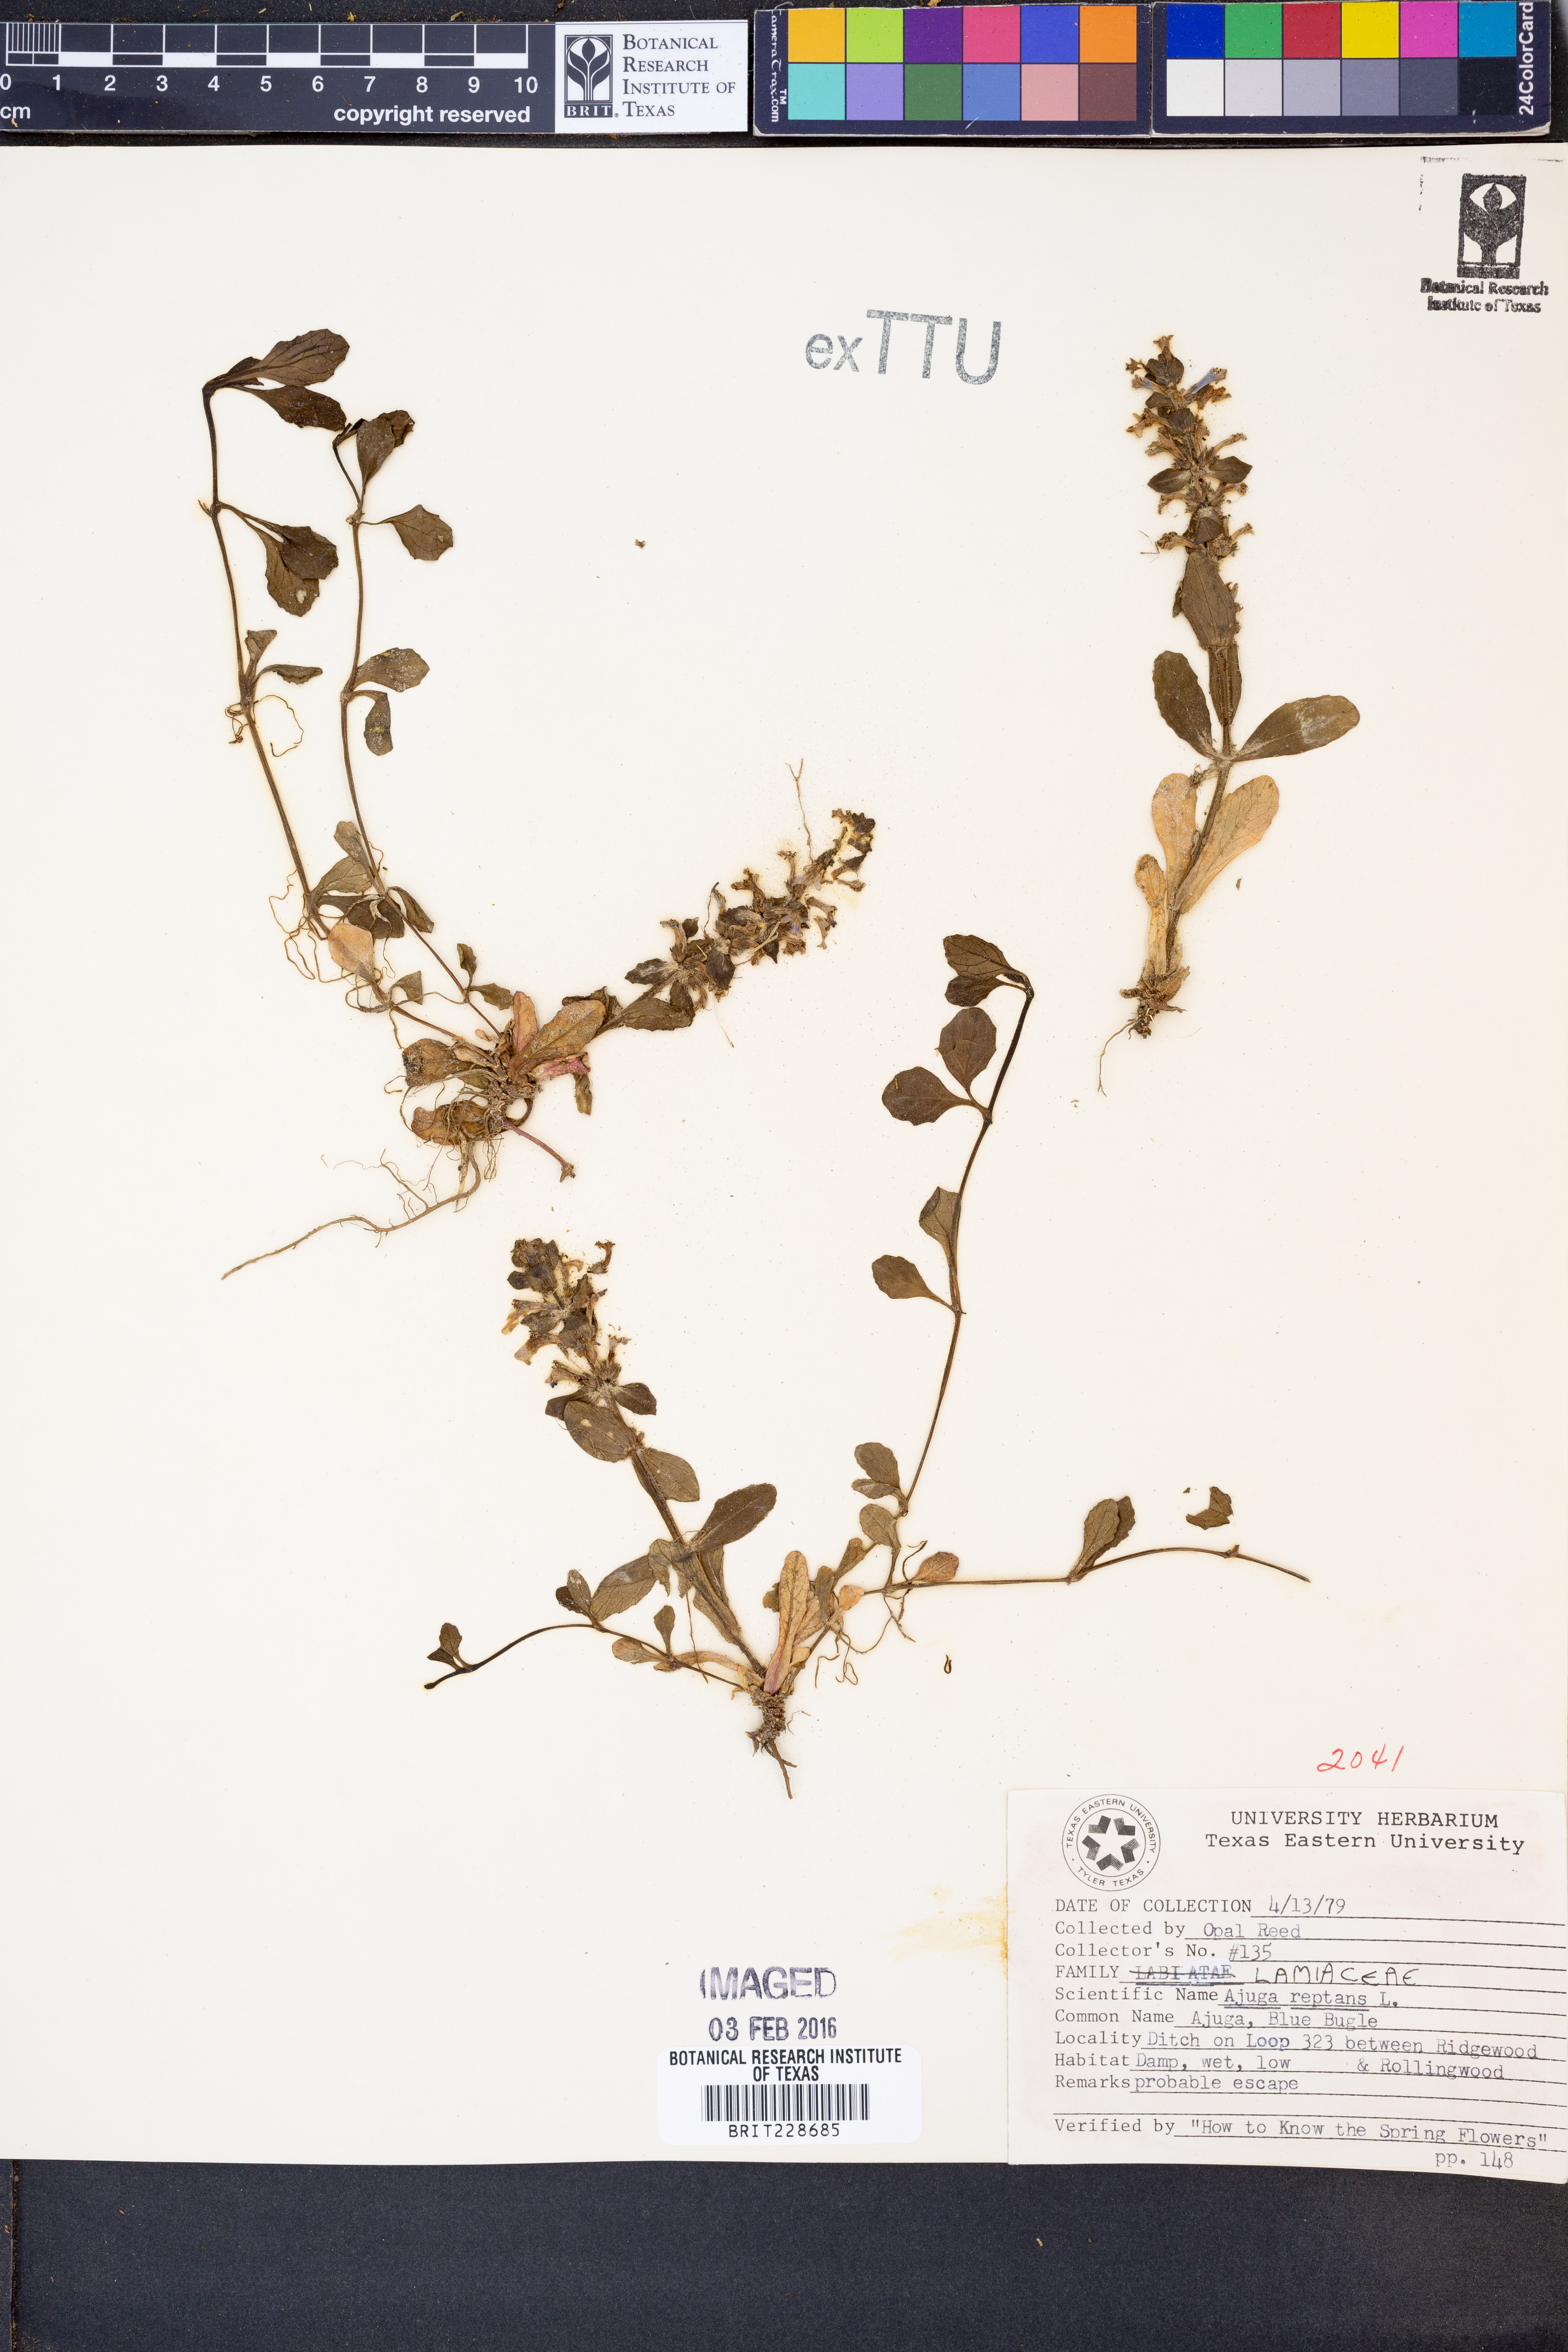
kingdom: Plantae
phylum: Tracheophyta
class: Magnoliopsida
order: Lamiales
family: Lamiaceae
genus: Ajuga
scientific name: Ajuga reptans
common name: Bugle
